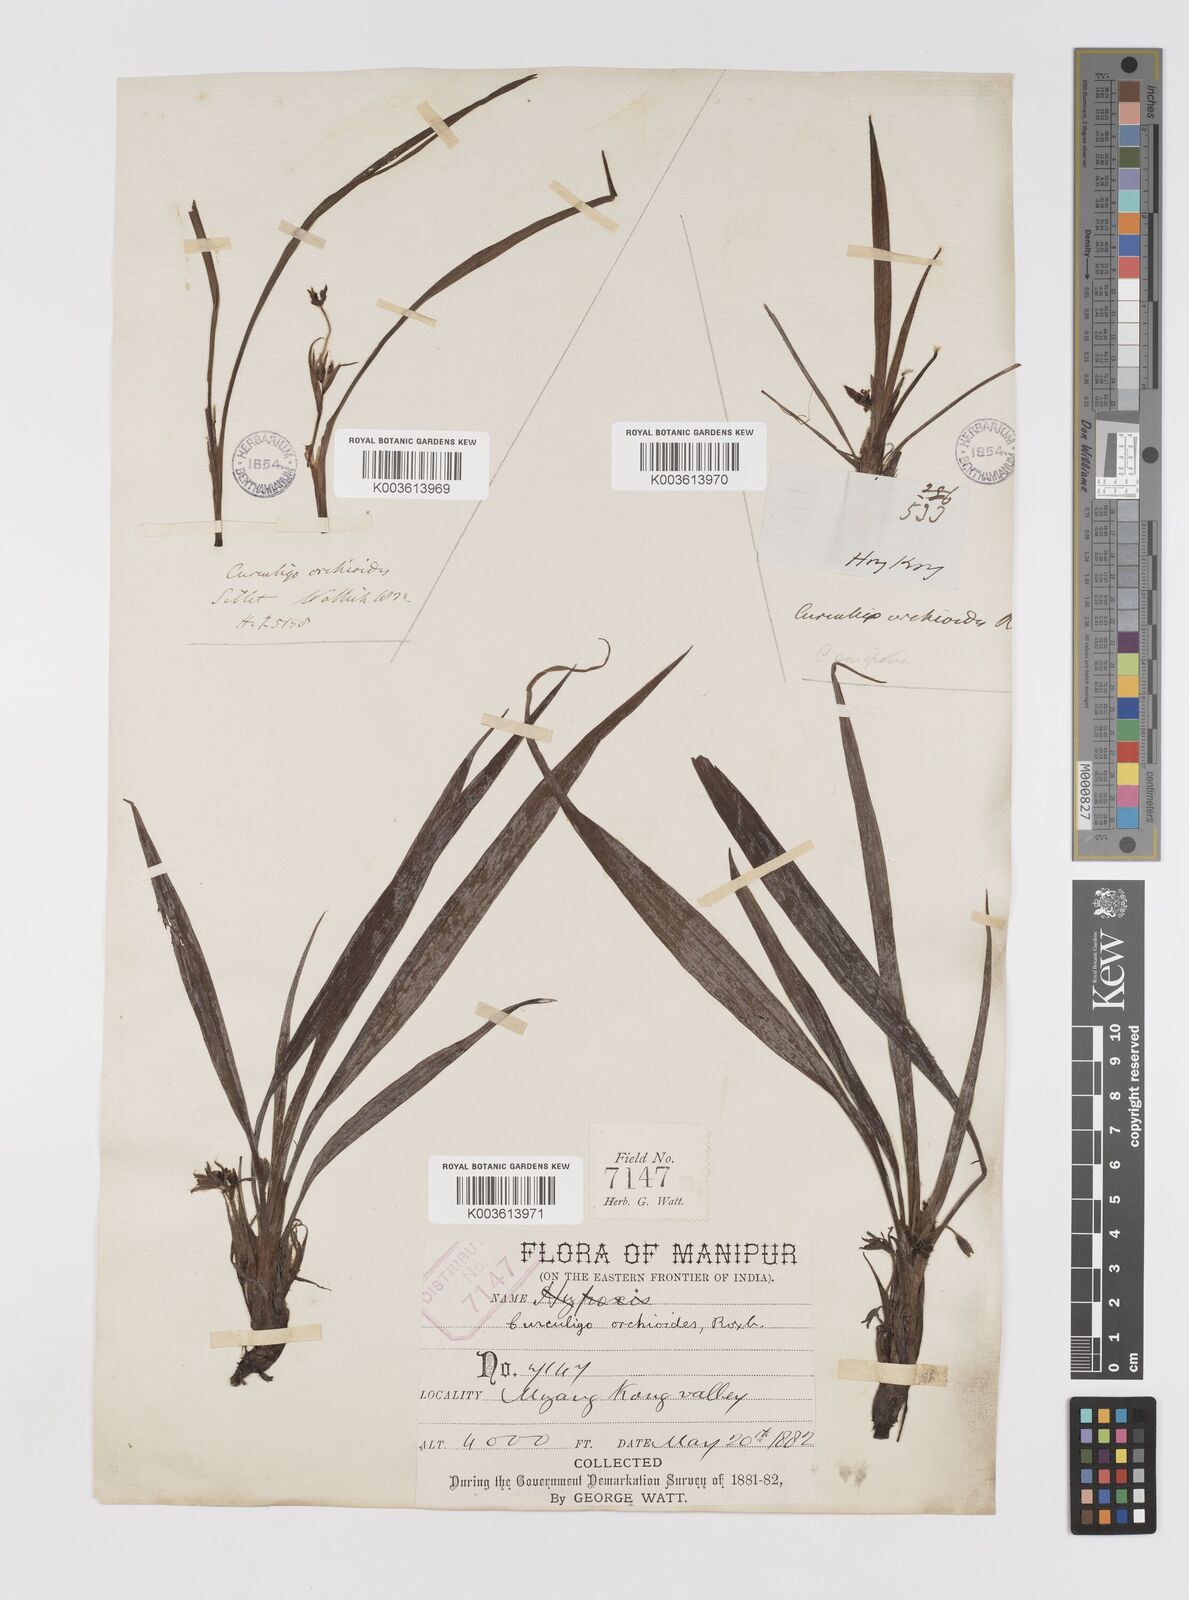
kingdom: Plantae
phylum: Tracheophyta
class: Liliopsida
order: Asparagales
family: Hypoxidaceae
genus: Curculigo
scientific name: Curculigo orchioides
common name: Golden eye-grass
